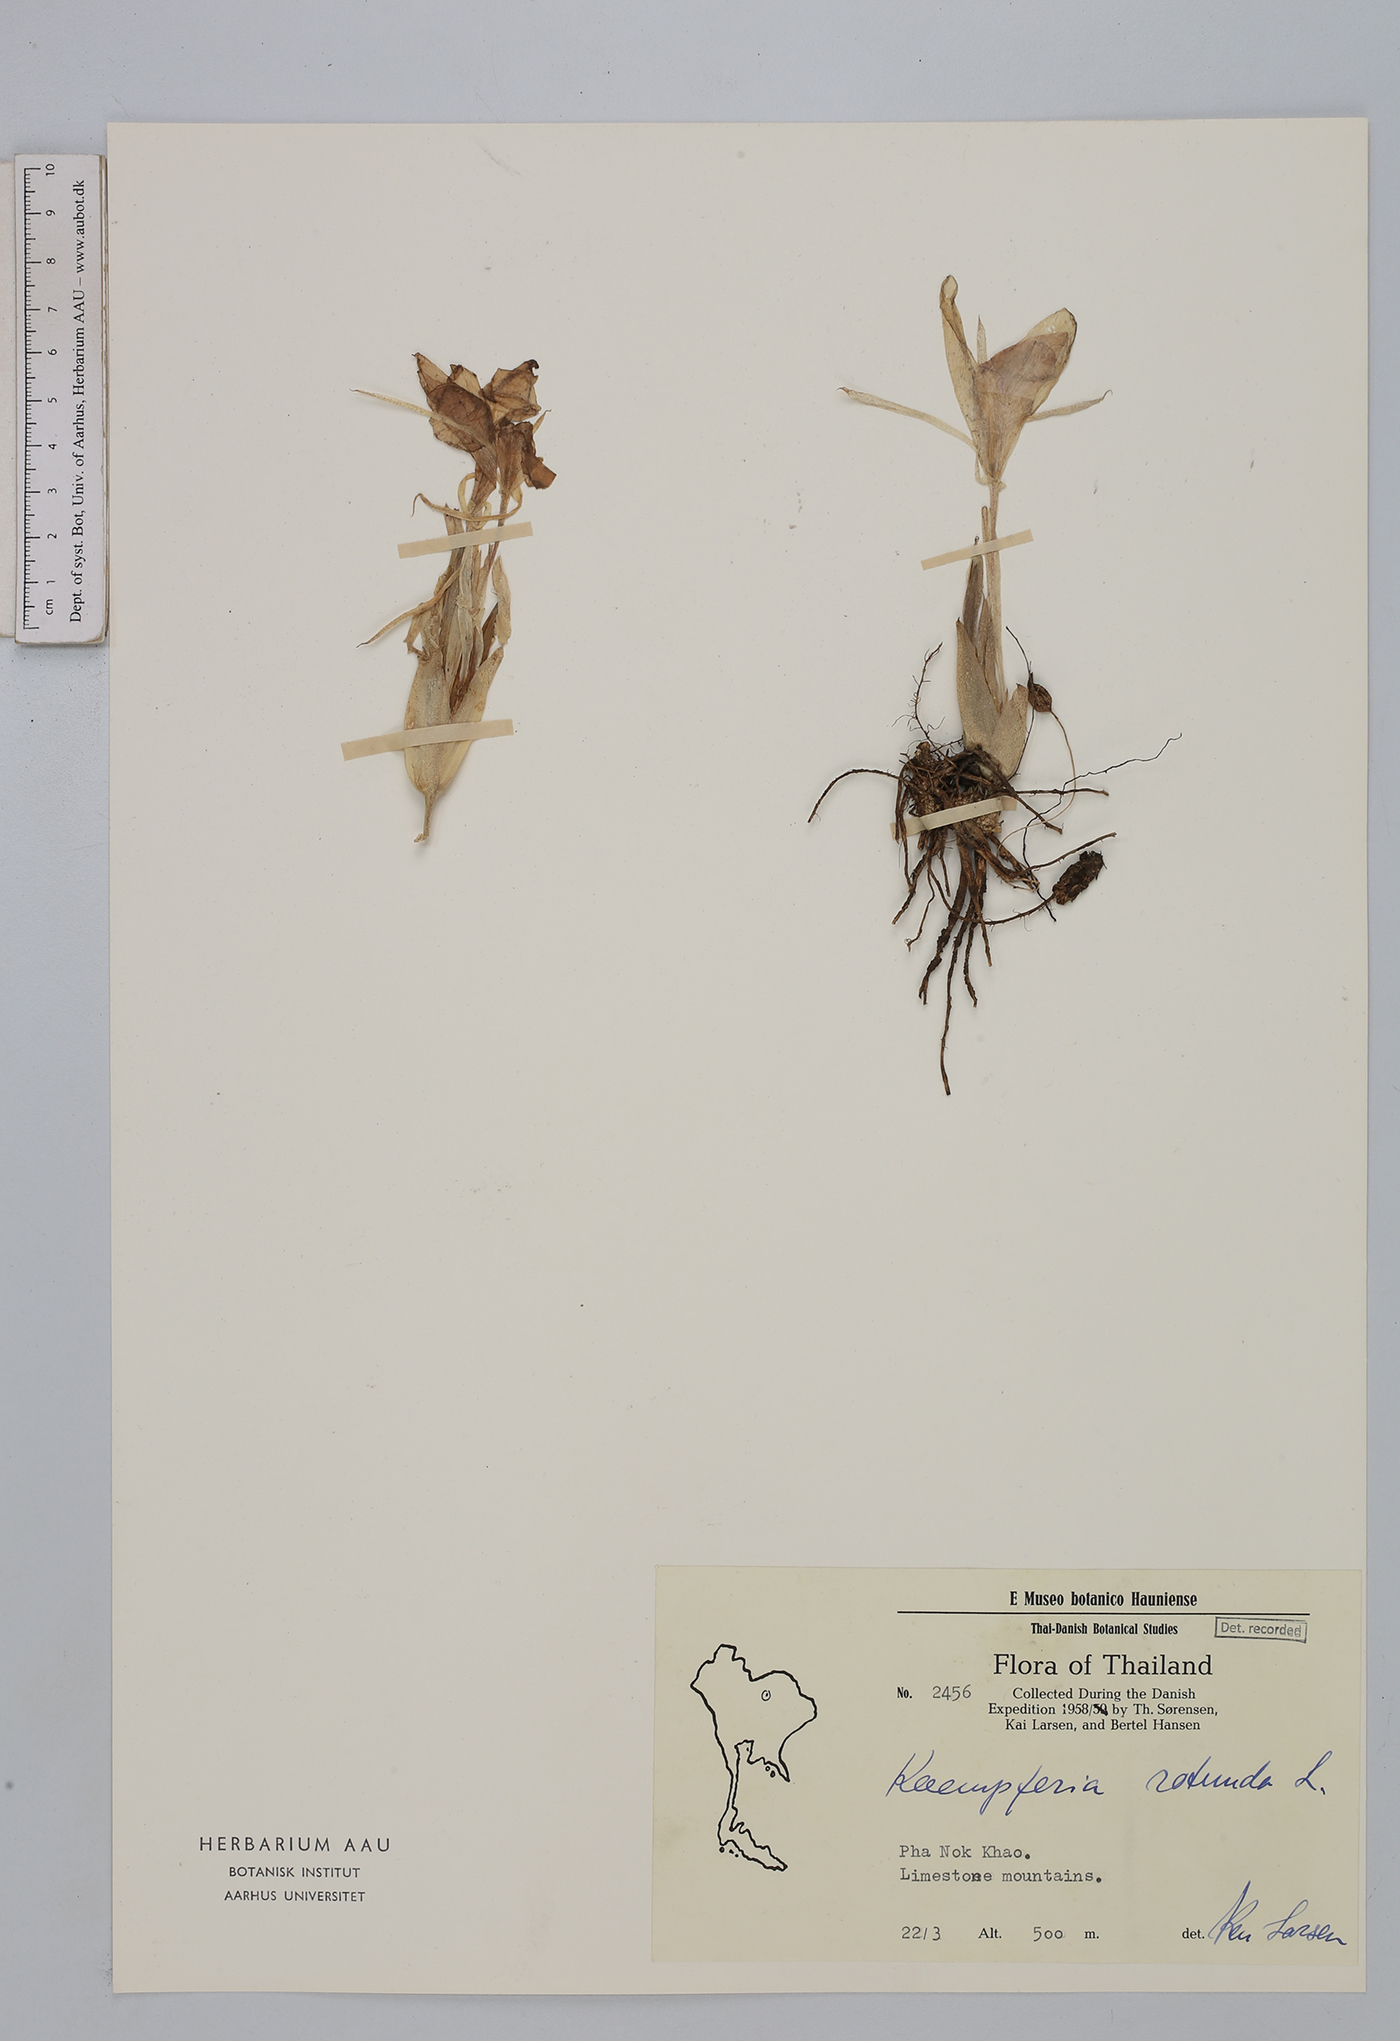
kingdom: Plantae
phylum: Tracheophyta
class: Liliopsida
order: Zingiberales
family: Zingiberaceae
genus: Kaempferia
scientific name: Kaempferia rotunda
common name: Tropical-crocus
